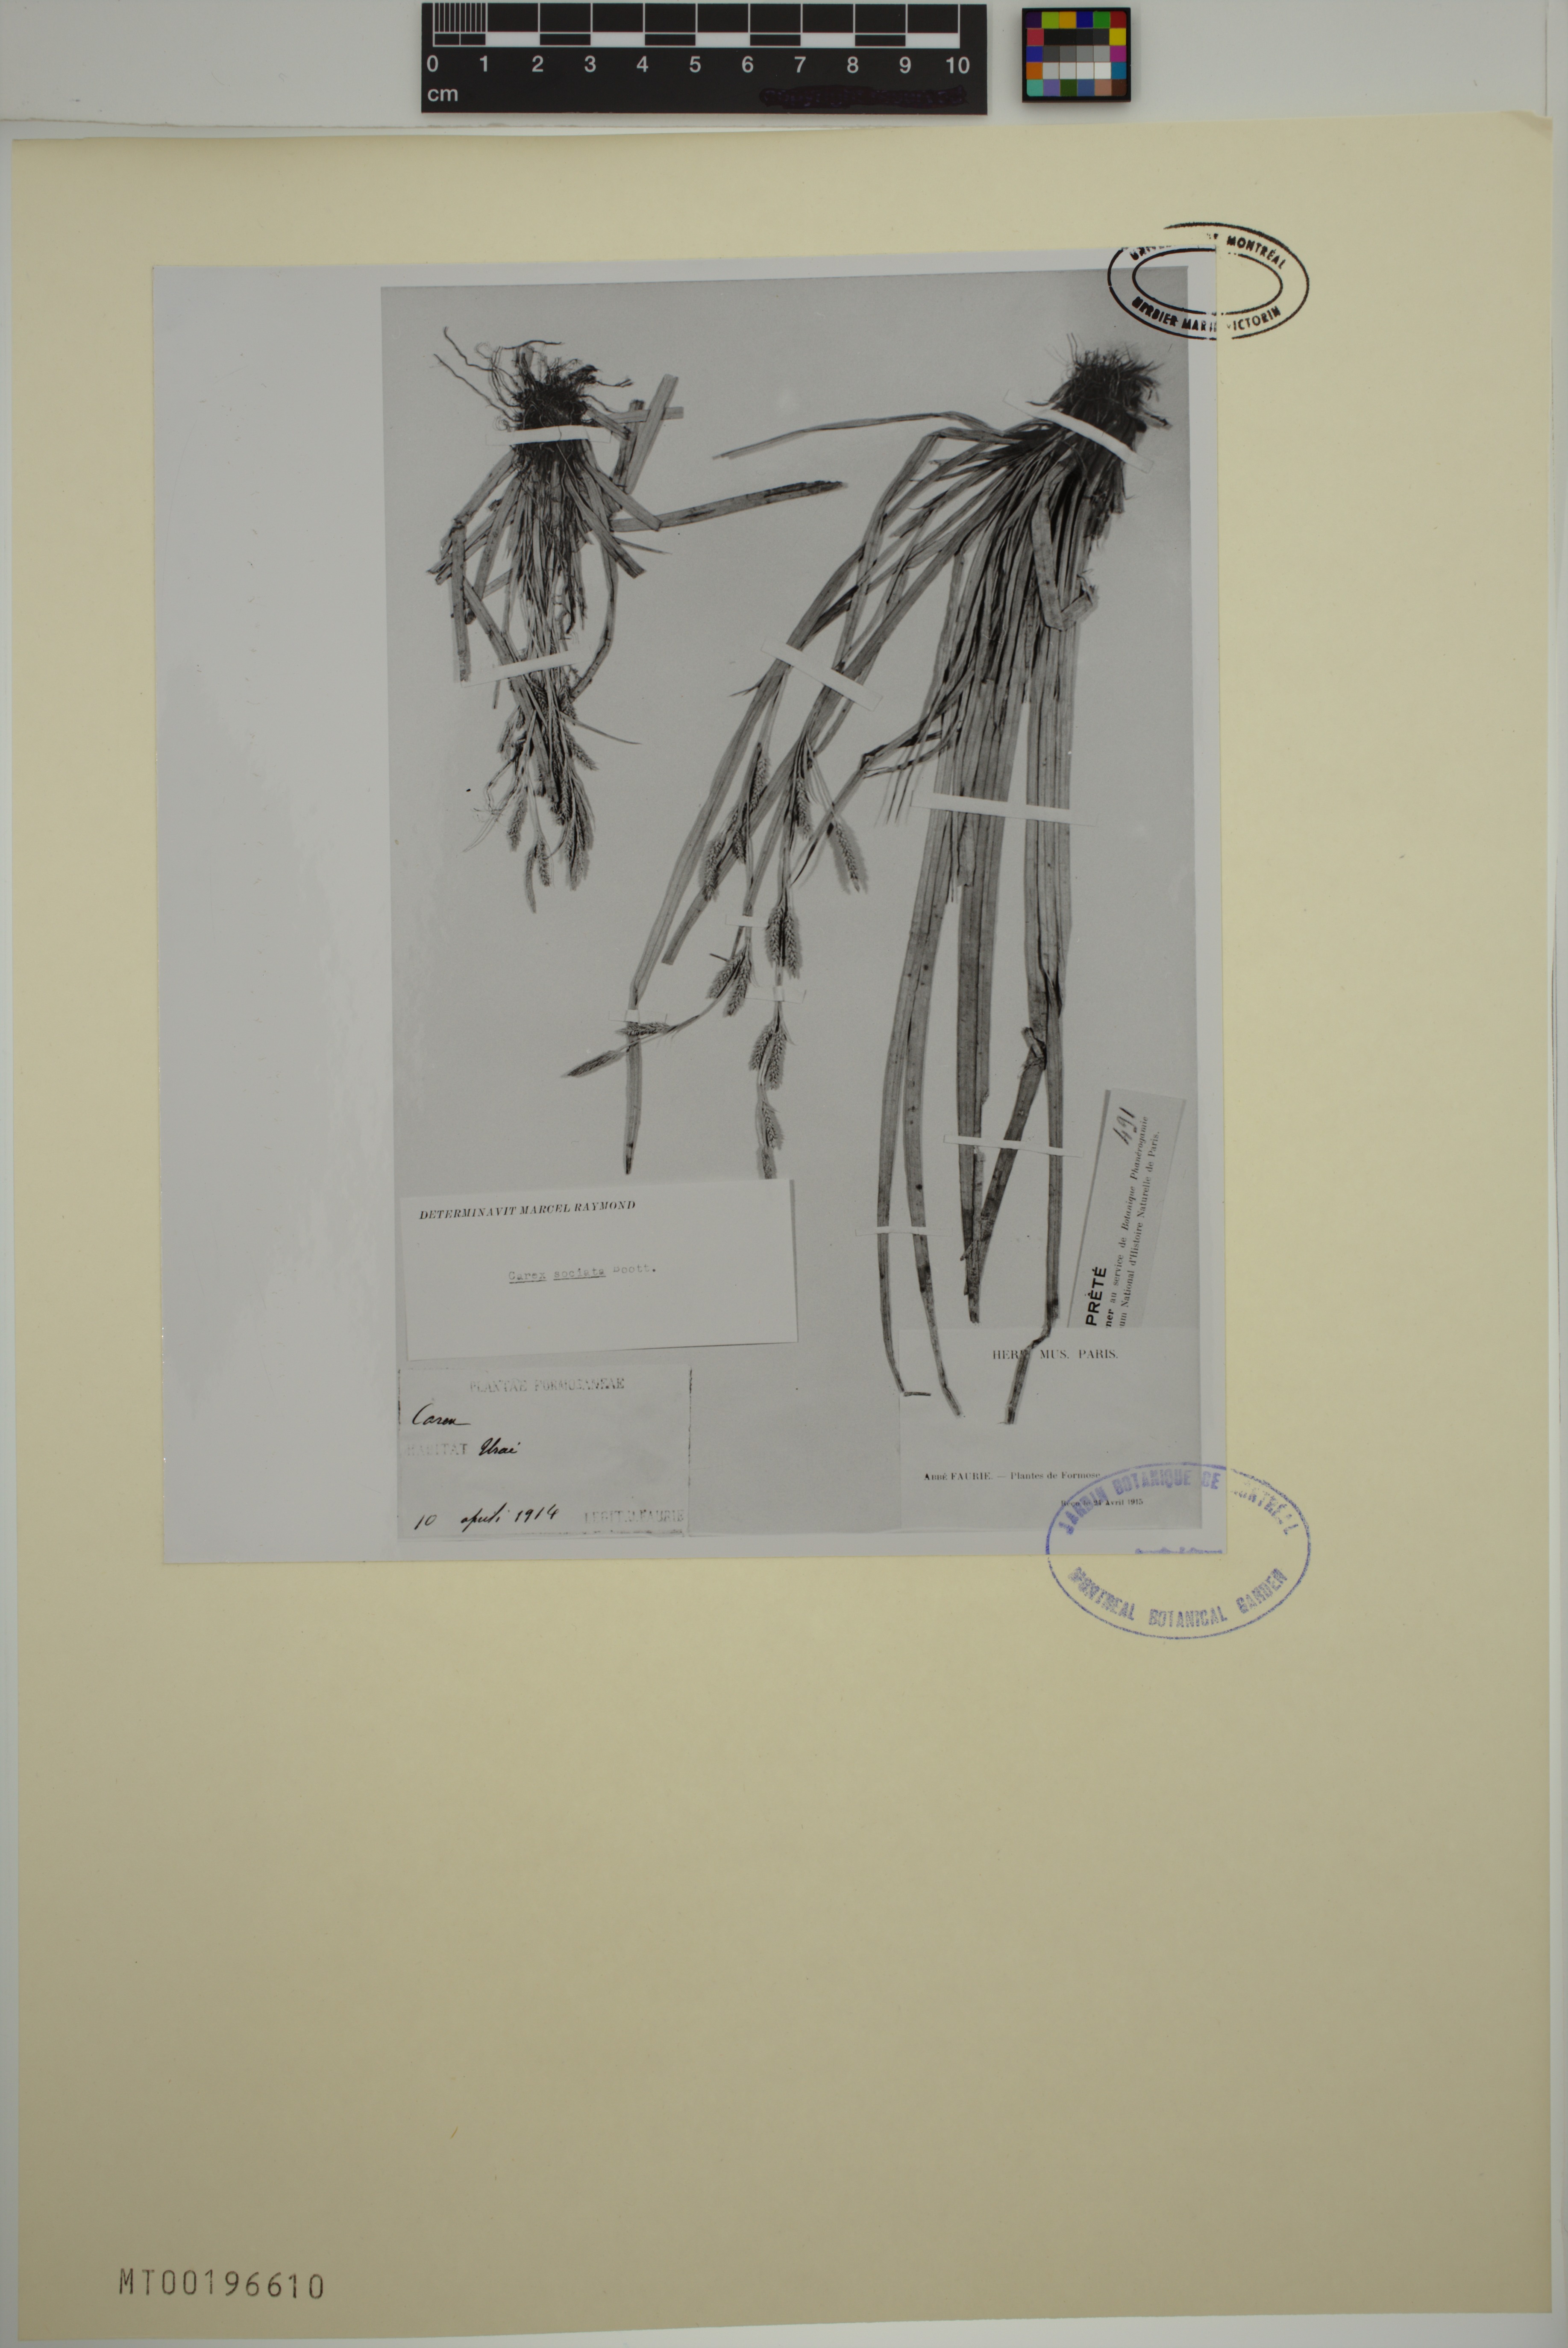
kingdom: Plantae
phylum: Tracheophyta
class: Liliopsida
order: Poales
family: Cyperaceae
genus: Carex
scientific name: Carex sociata
